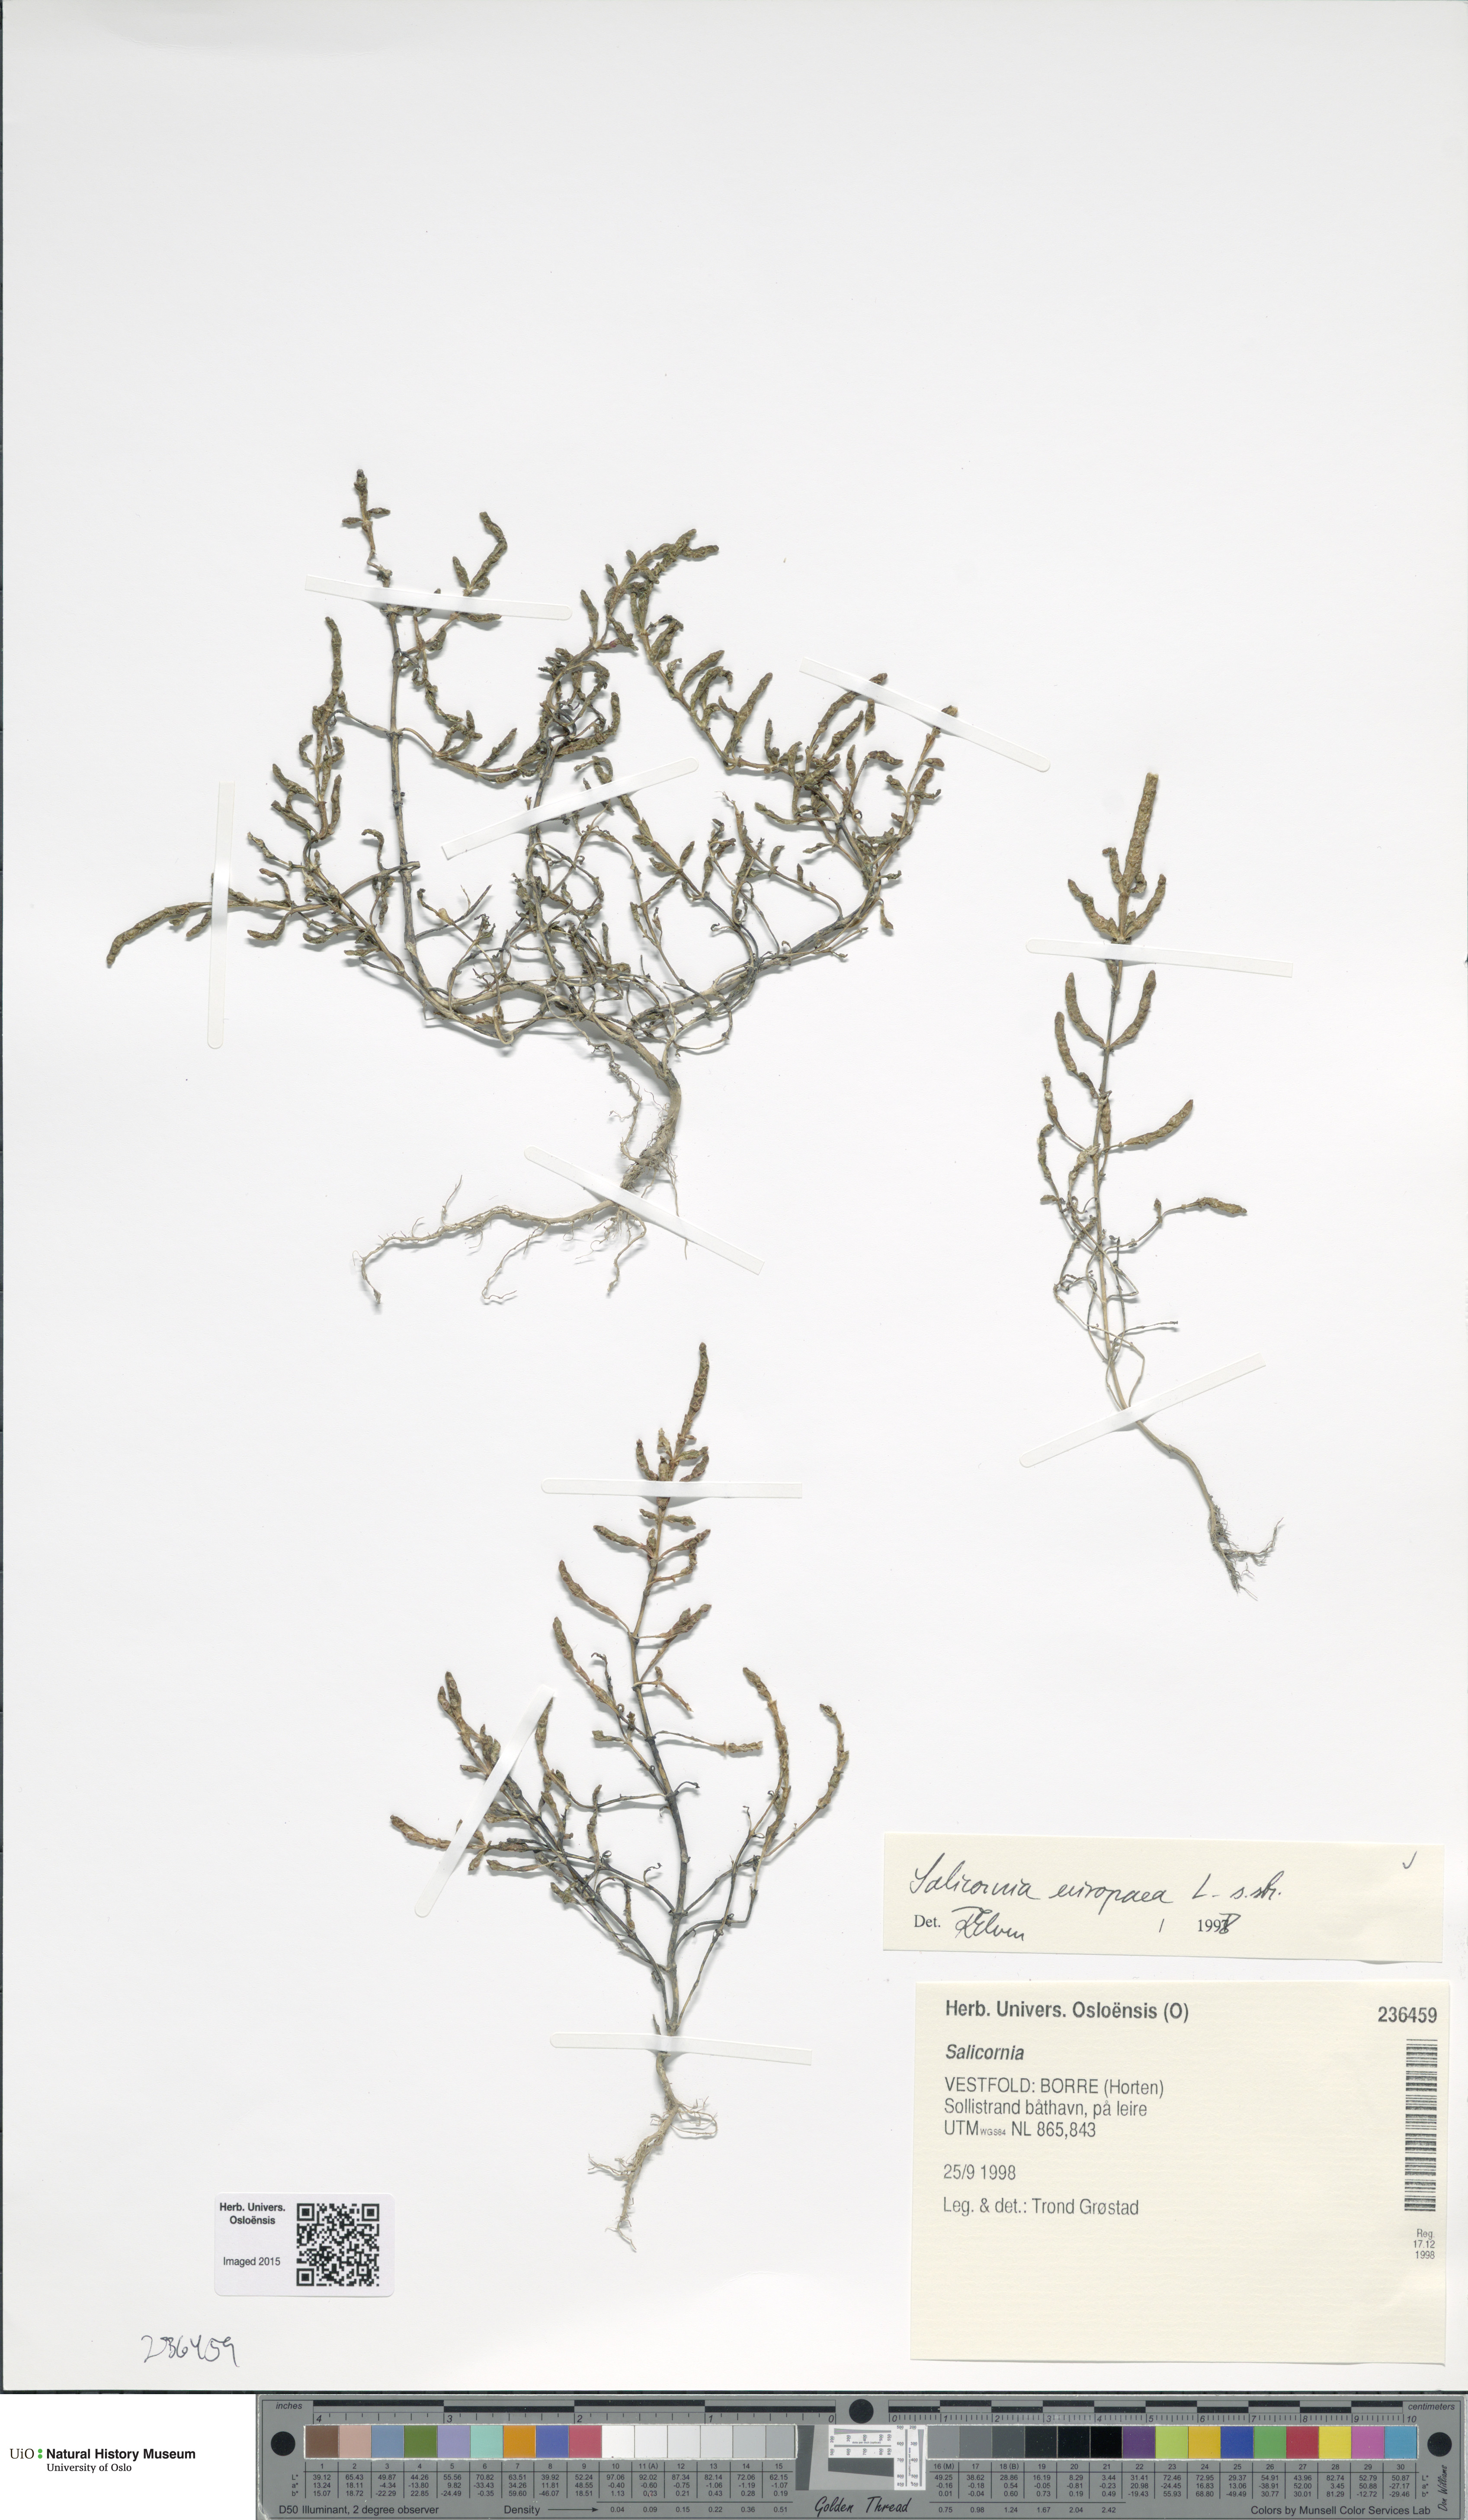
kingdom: Plantae
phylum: Tracheophyta
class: Magnoliopsida
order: Caryophyllales
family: Amaranthaceae
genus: Salicornia
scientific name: Salicornia europaea
